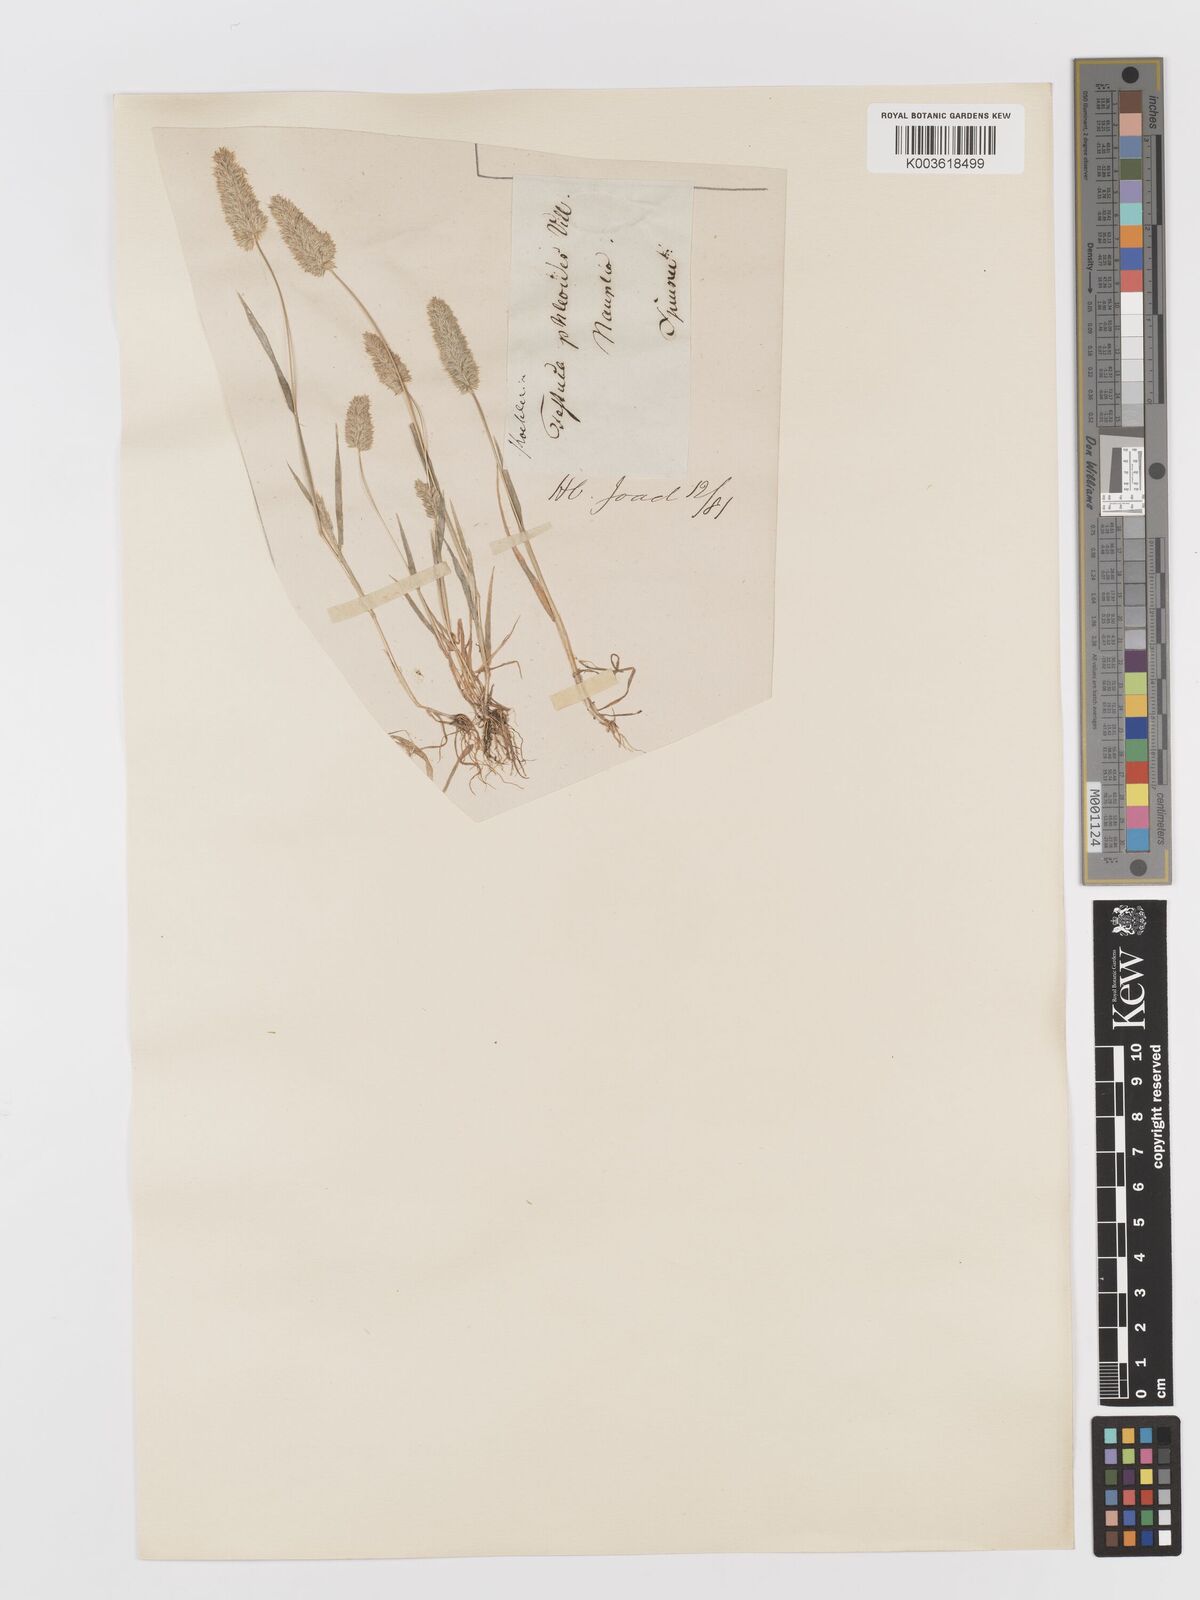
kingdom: Plantae
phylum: Tracheophyta
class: Liliopsida
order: Poales
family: Poaceae
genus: Rostraria
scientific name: Rostraria cristata
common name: Mediterranean hair-grass
